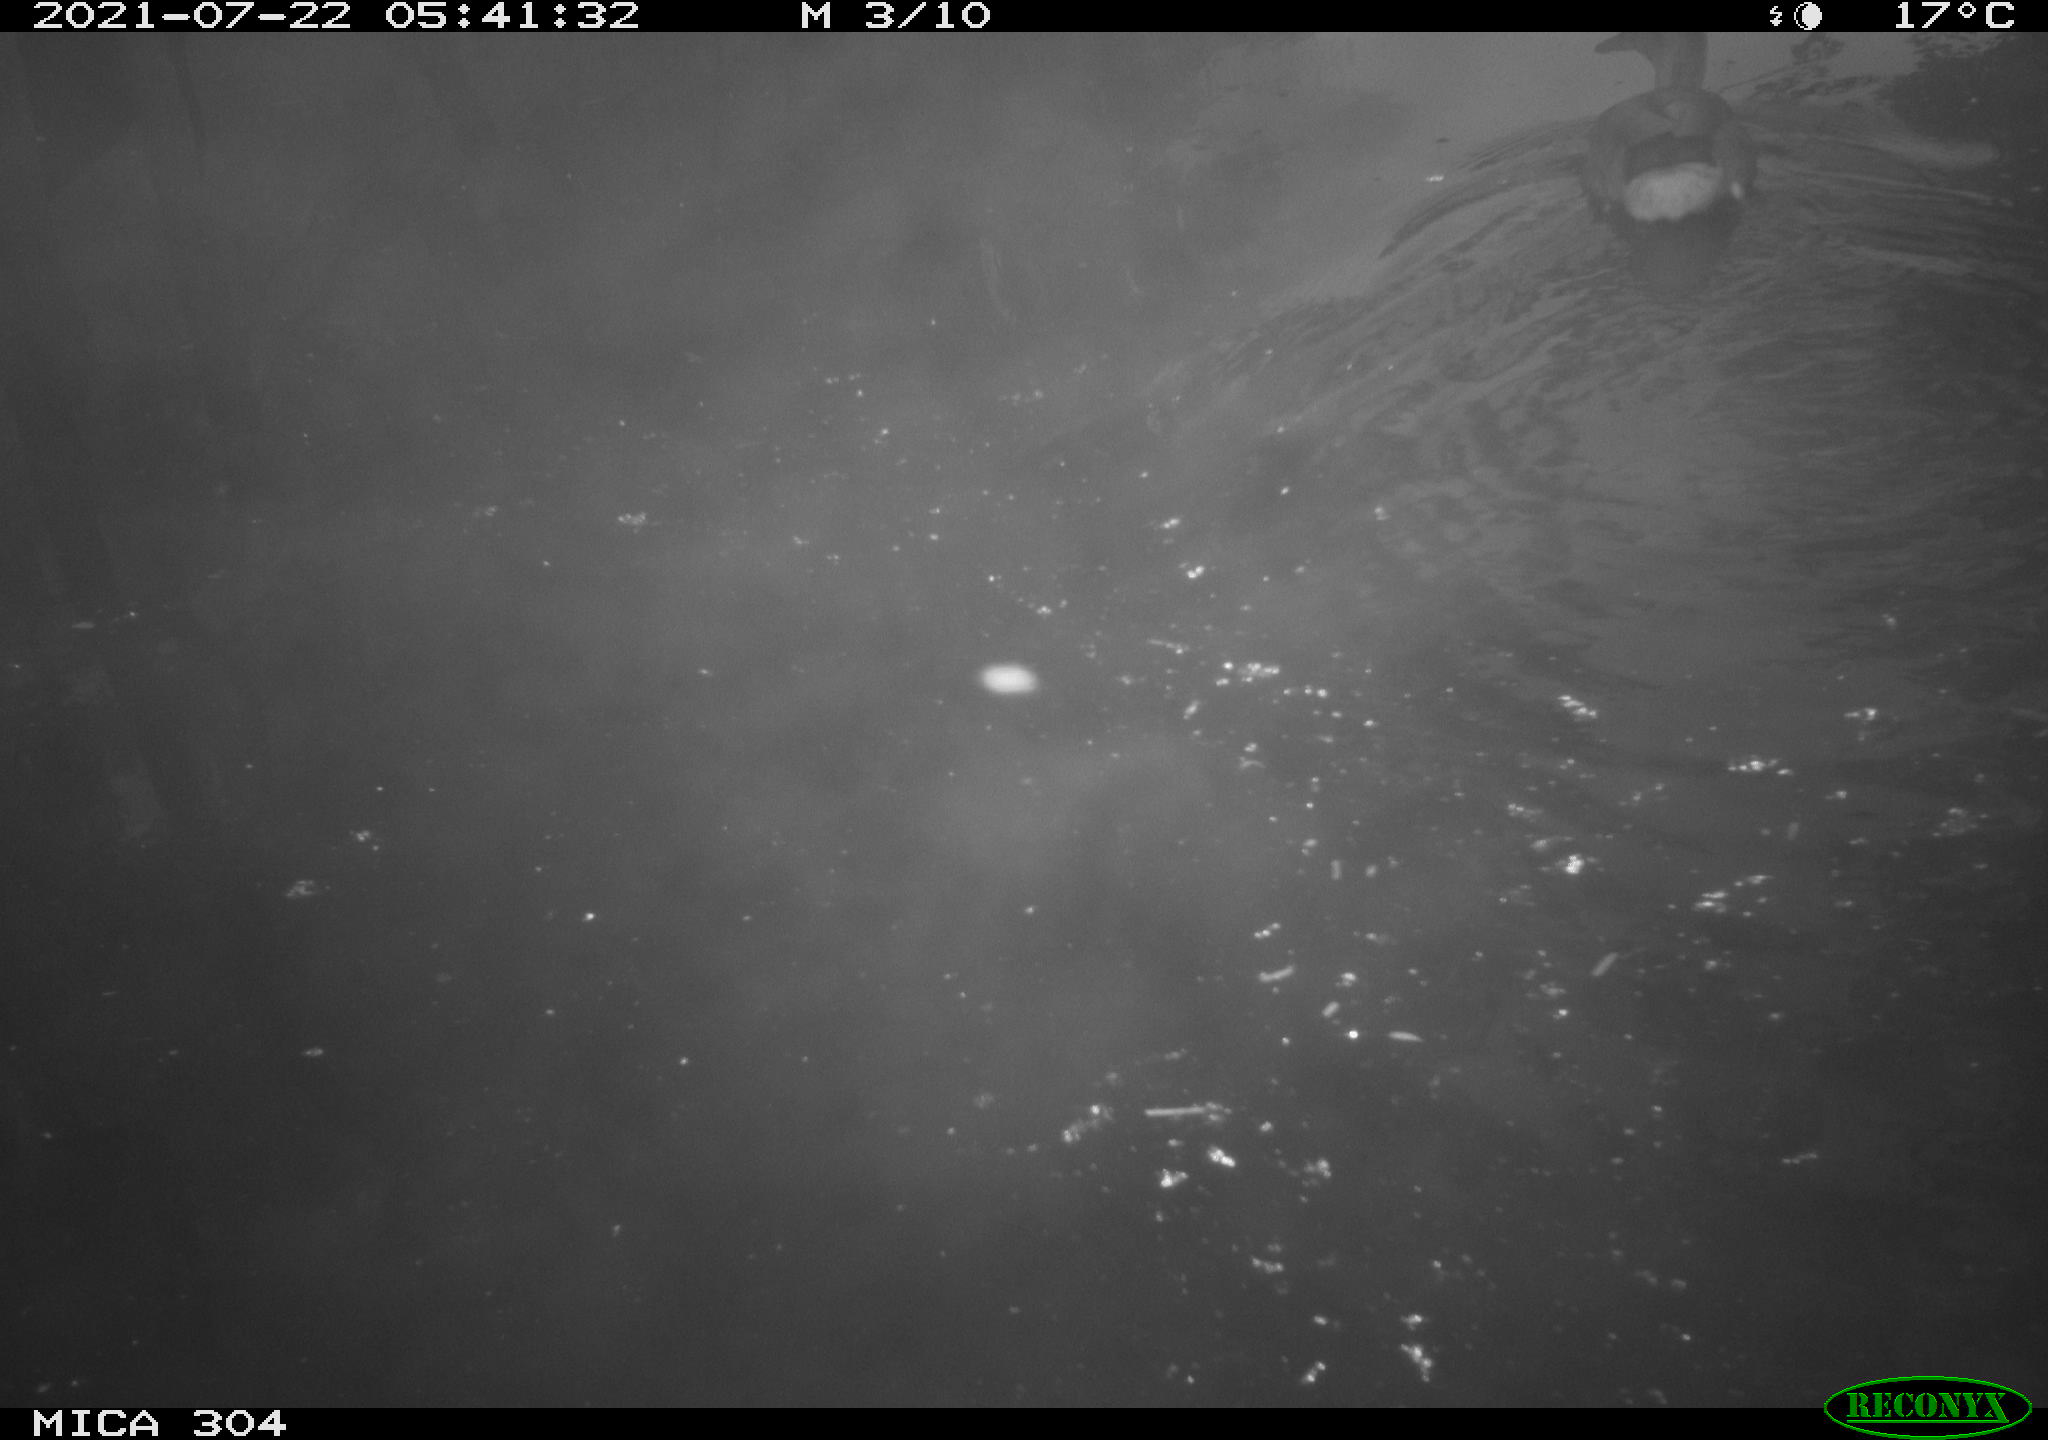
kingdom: Animalia
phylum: Chordata
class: Aves
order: Gruiformes
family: Rallidae
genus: Fulica
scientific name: Fulica atra
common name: Eurasian coot
